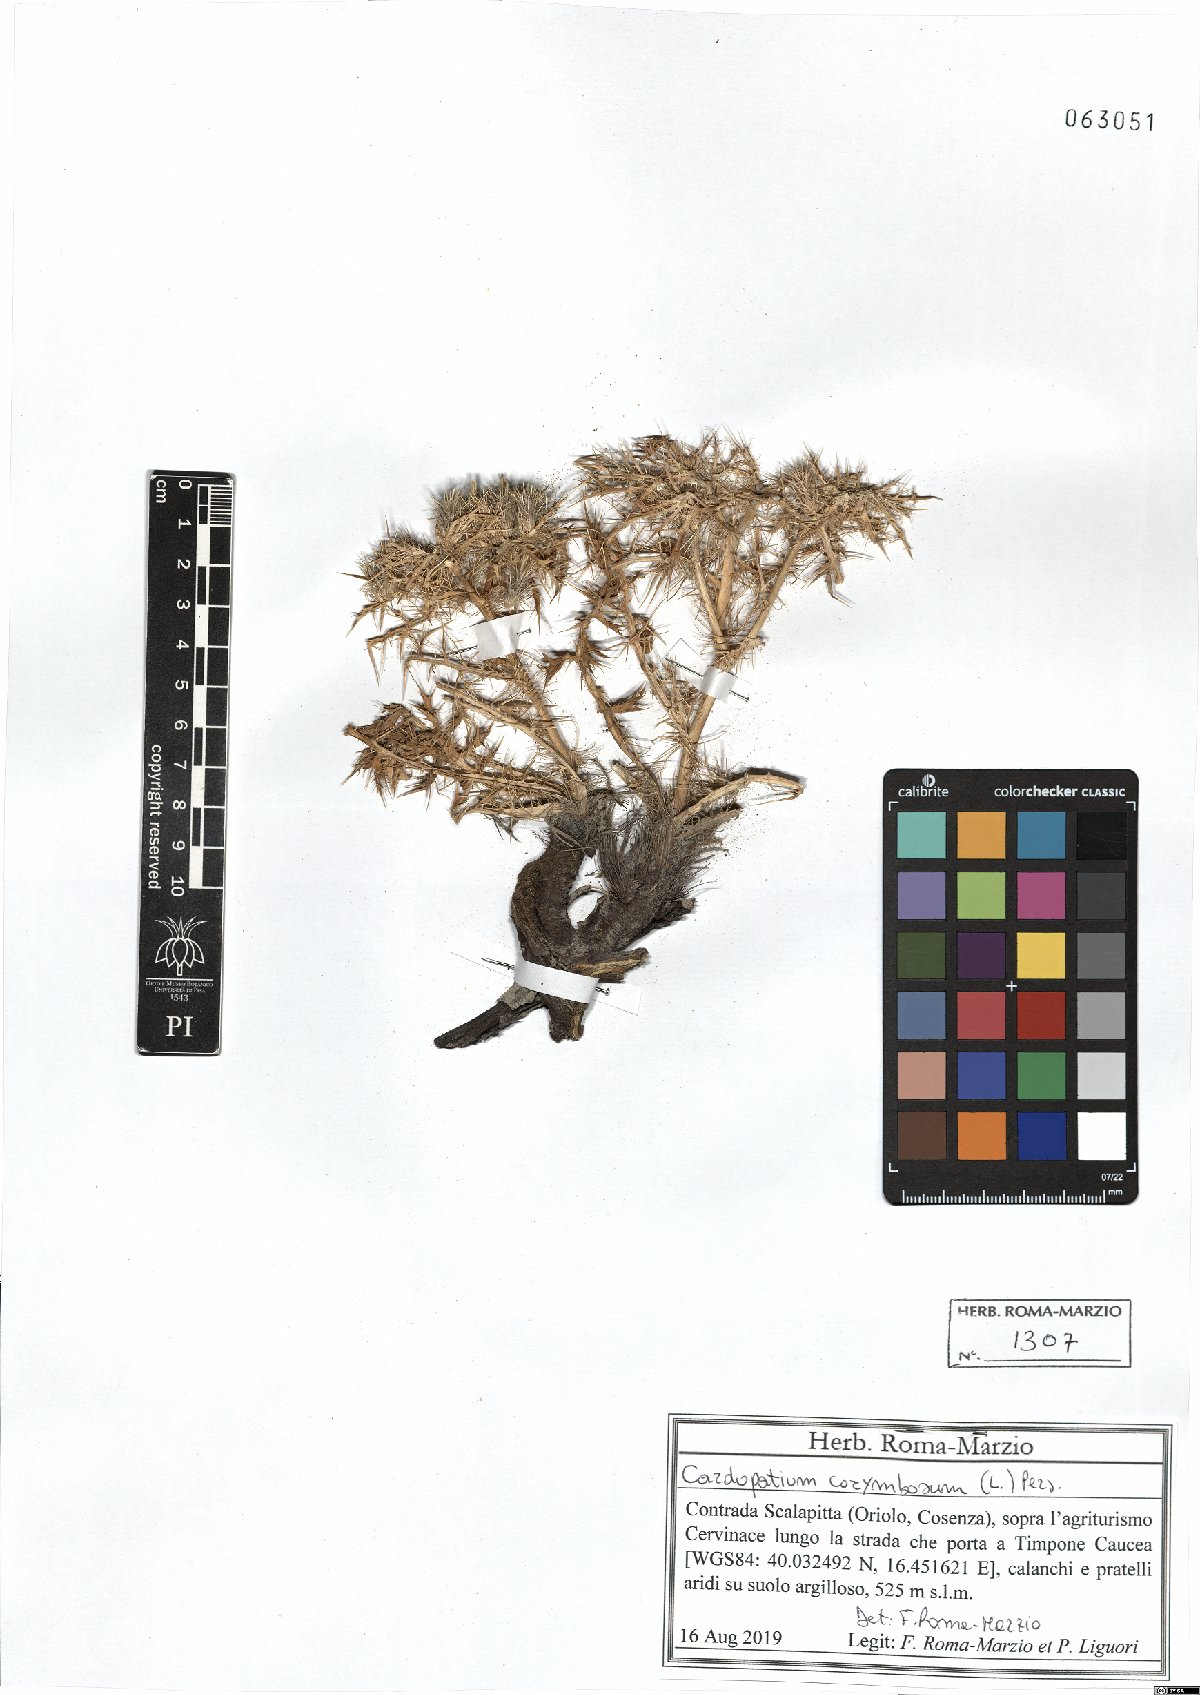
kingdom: Plantae
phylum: Tracheophyta
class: Magnoliopsida
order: Asterales
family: Asteraceae
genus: Cardopatium
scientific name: Cardopatium corymbosum
